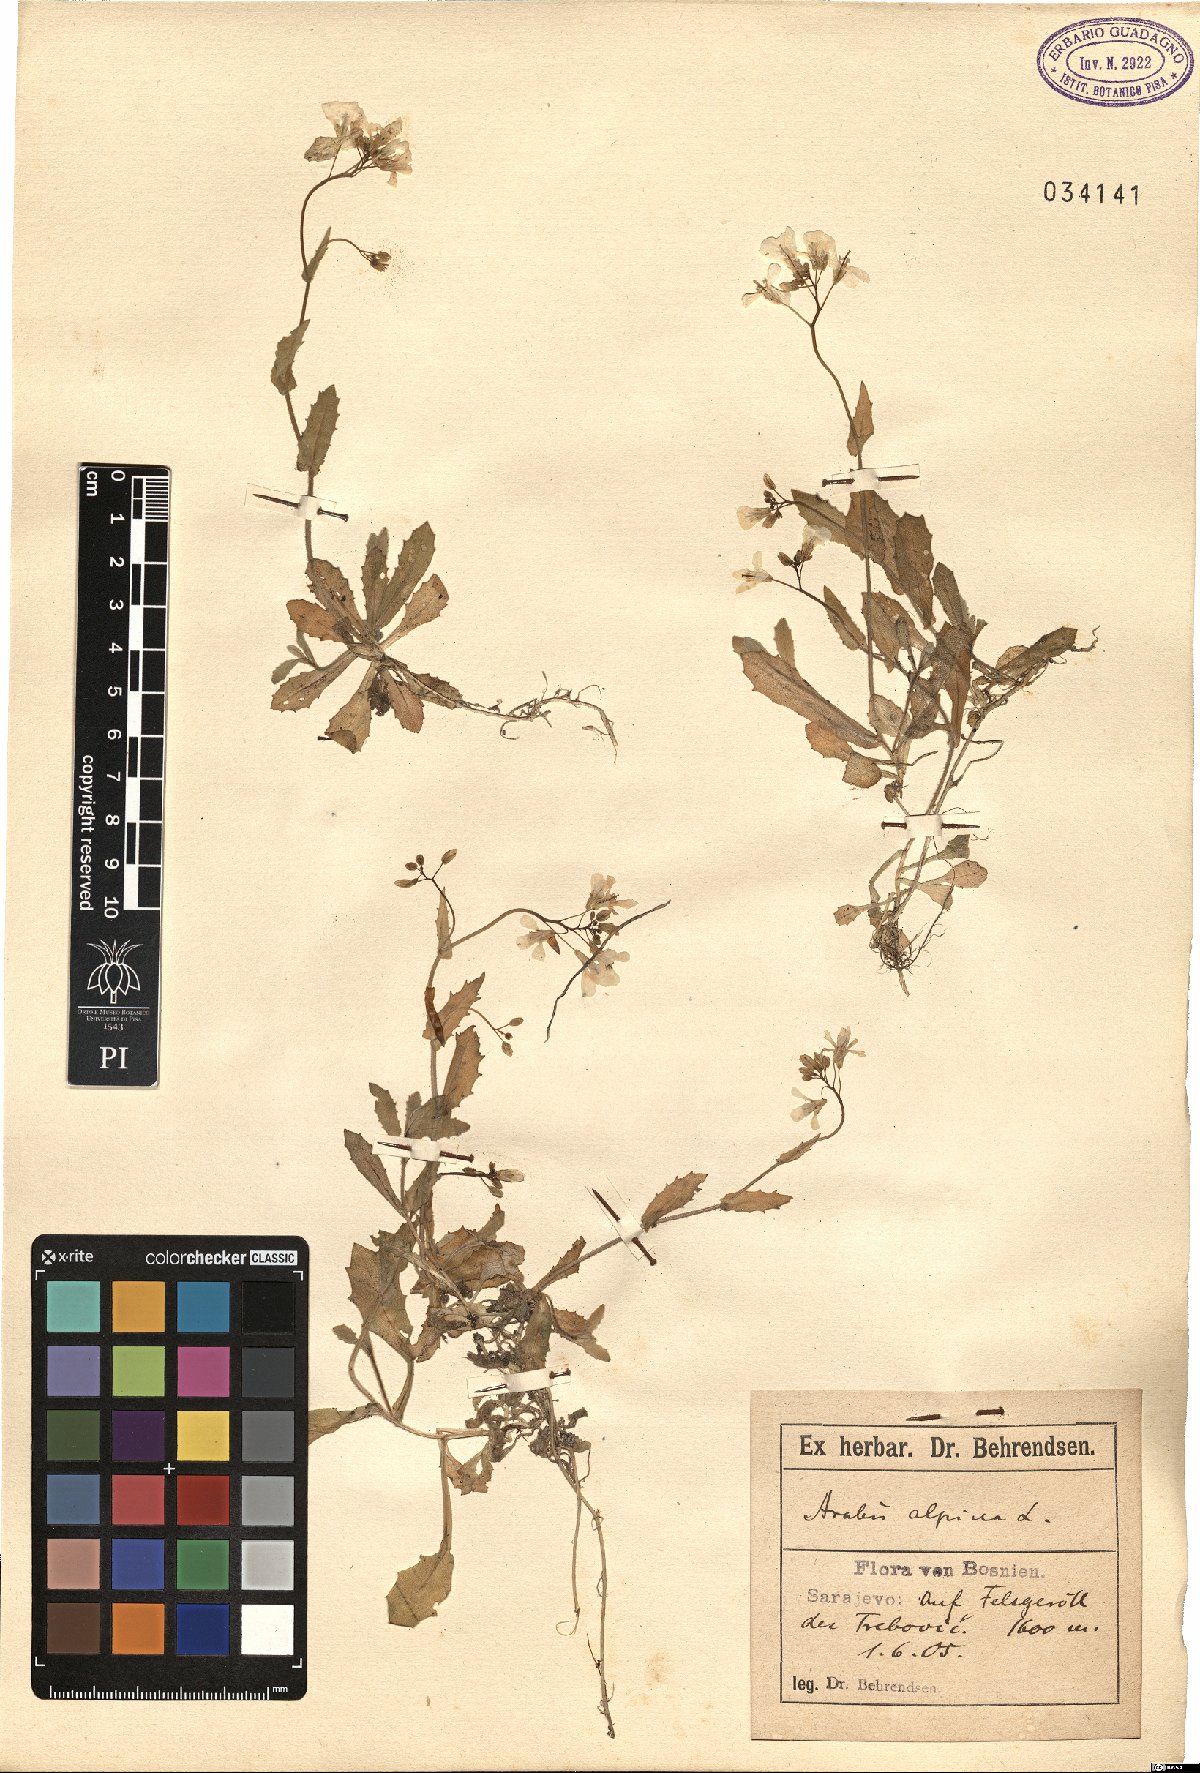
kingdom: Plantae
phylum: Tracheophyta
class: Magnoliopsida
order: Brassicales
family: Brassicaceae
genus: Arabis
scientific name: Arabis alpina
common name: Alpine rock-cress
